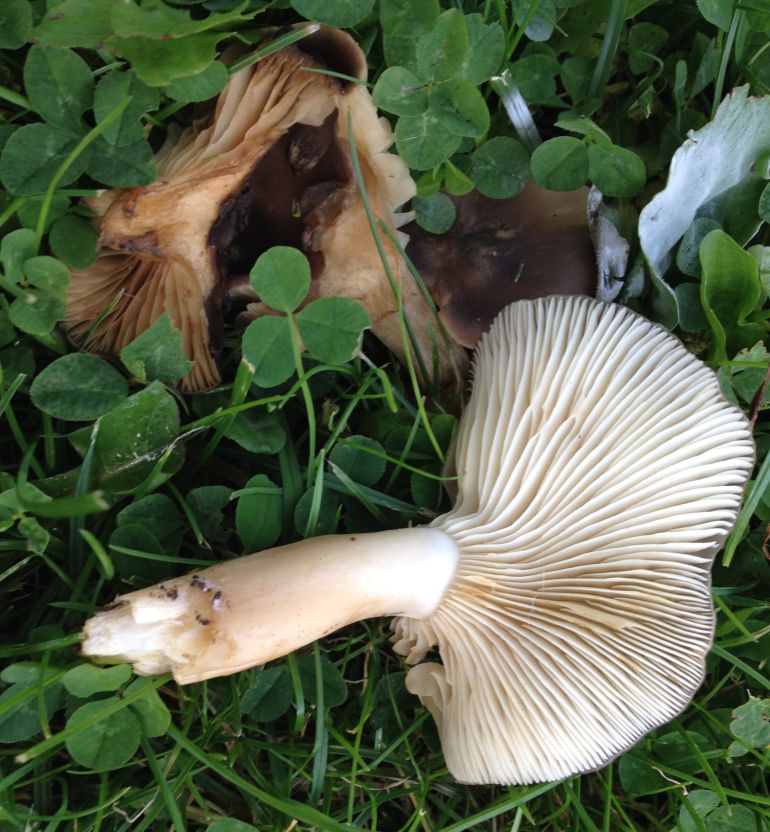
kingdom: Fungi
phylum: Basidiomycota
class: Agaricomycetes
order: Agaricales
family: Lyophyllaceae
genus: Lyophyllum
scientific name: Lyophyllum decastes
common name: røggrå gråblad
